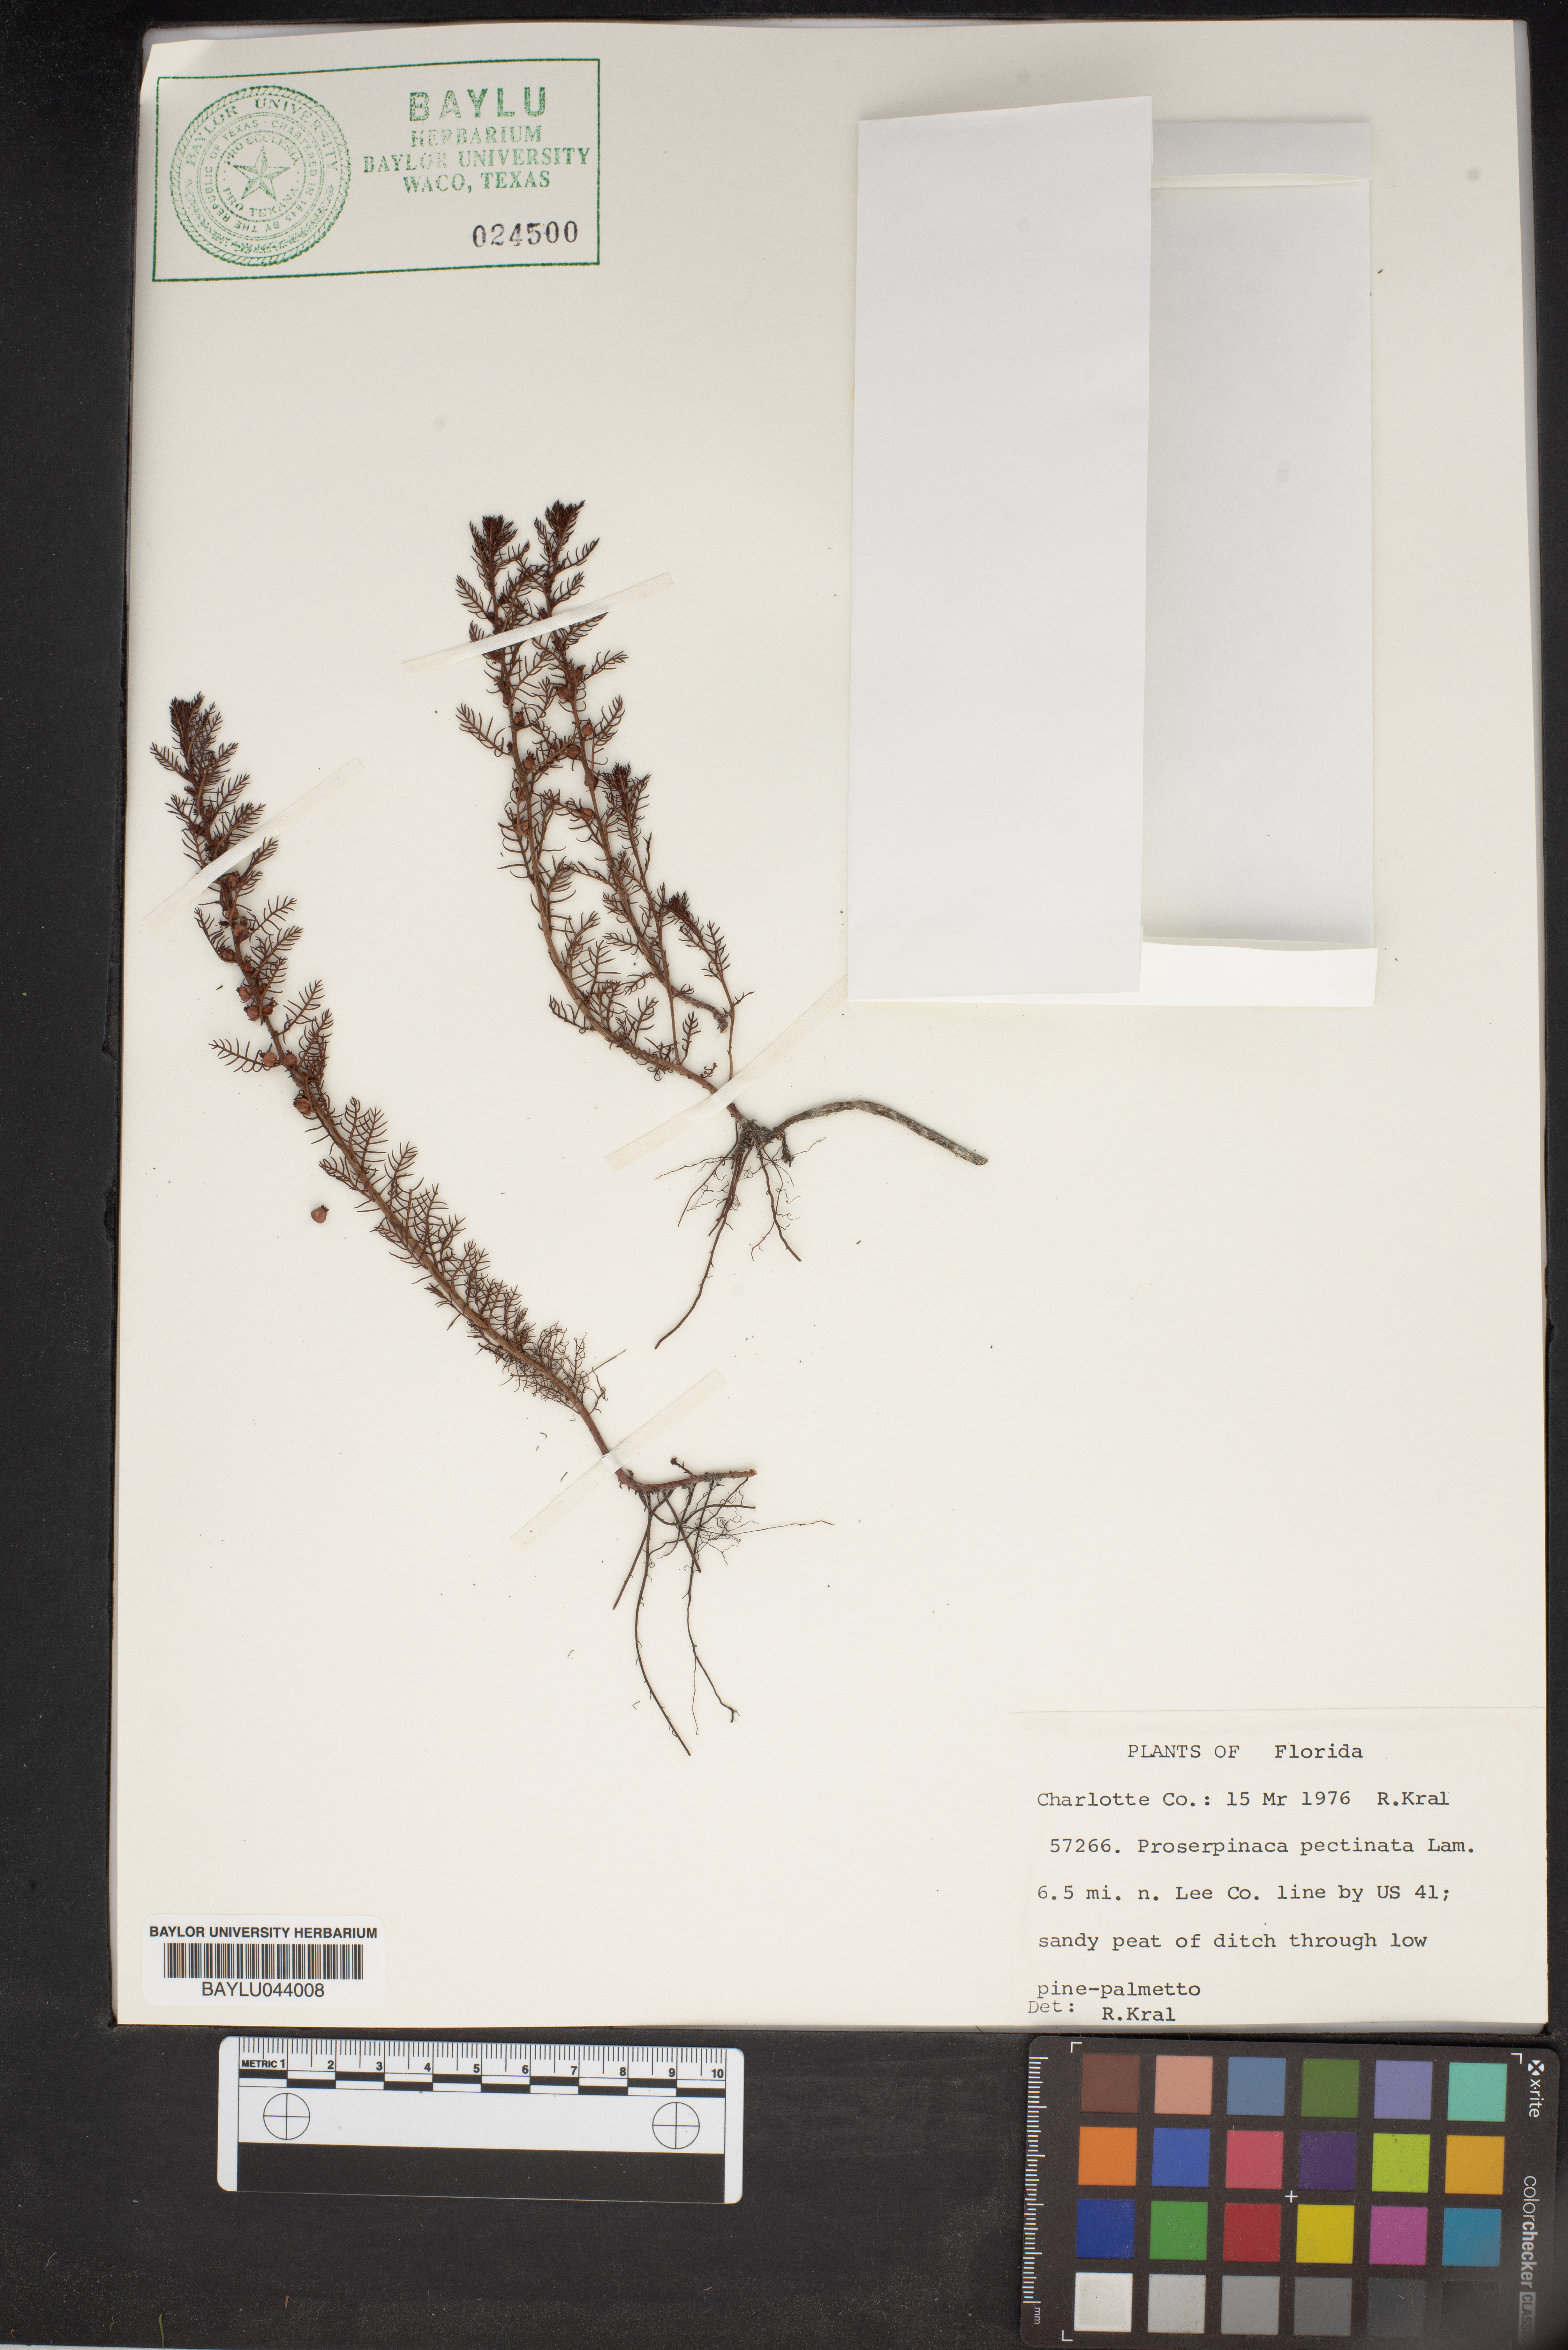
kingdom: Plantae
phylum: Tracheophyta
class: Magnoliopsida
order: Saxifragales
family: Haloragaceae
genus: Proserpinaca
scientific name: Proserpinaca pectinata
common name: Comb-leaved mermaidweed
